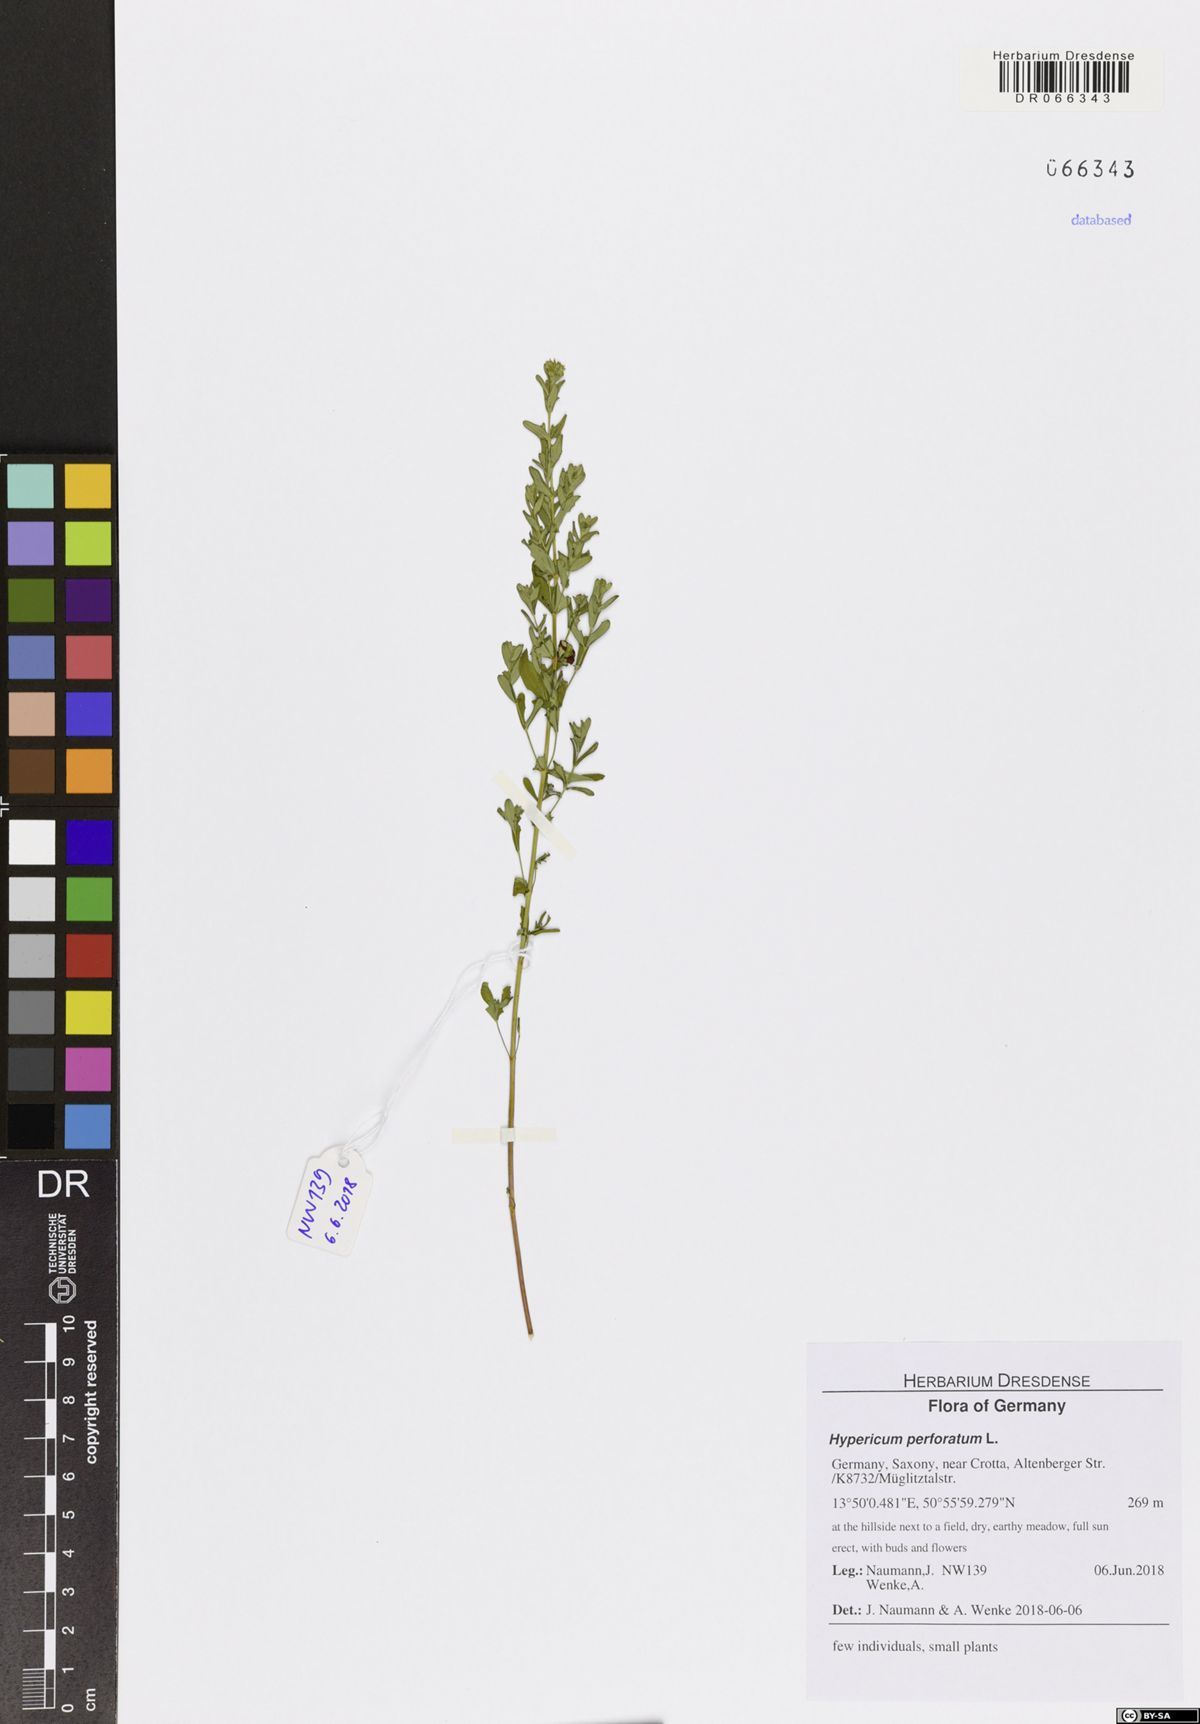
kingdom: Plantae
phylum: Tracheophyta
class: Magnoliopsida
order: Malpighiales
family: Hypericaceae
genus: Hypericum
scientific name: Hypericum perforatum
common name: Common st. johnswort
